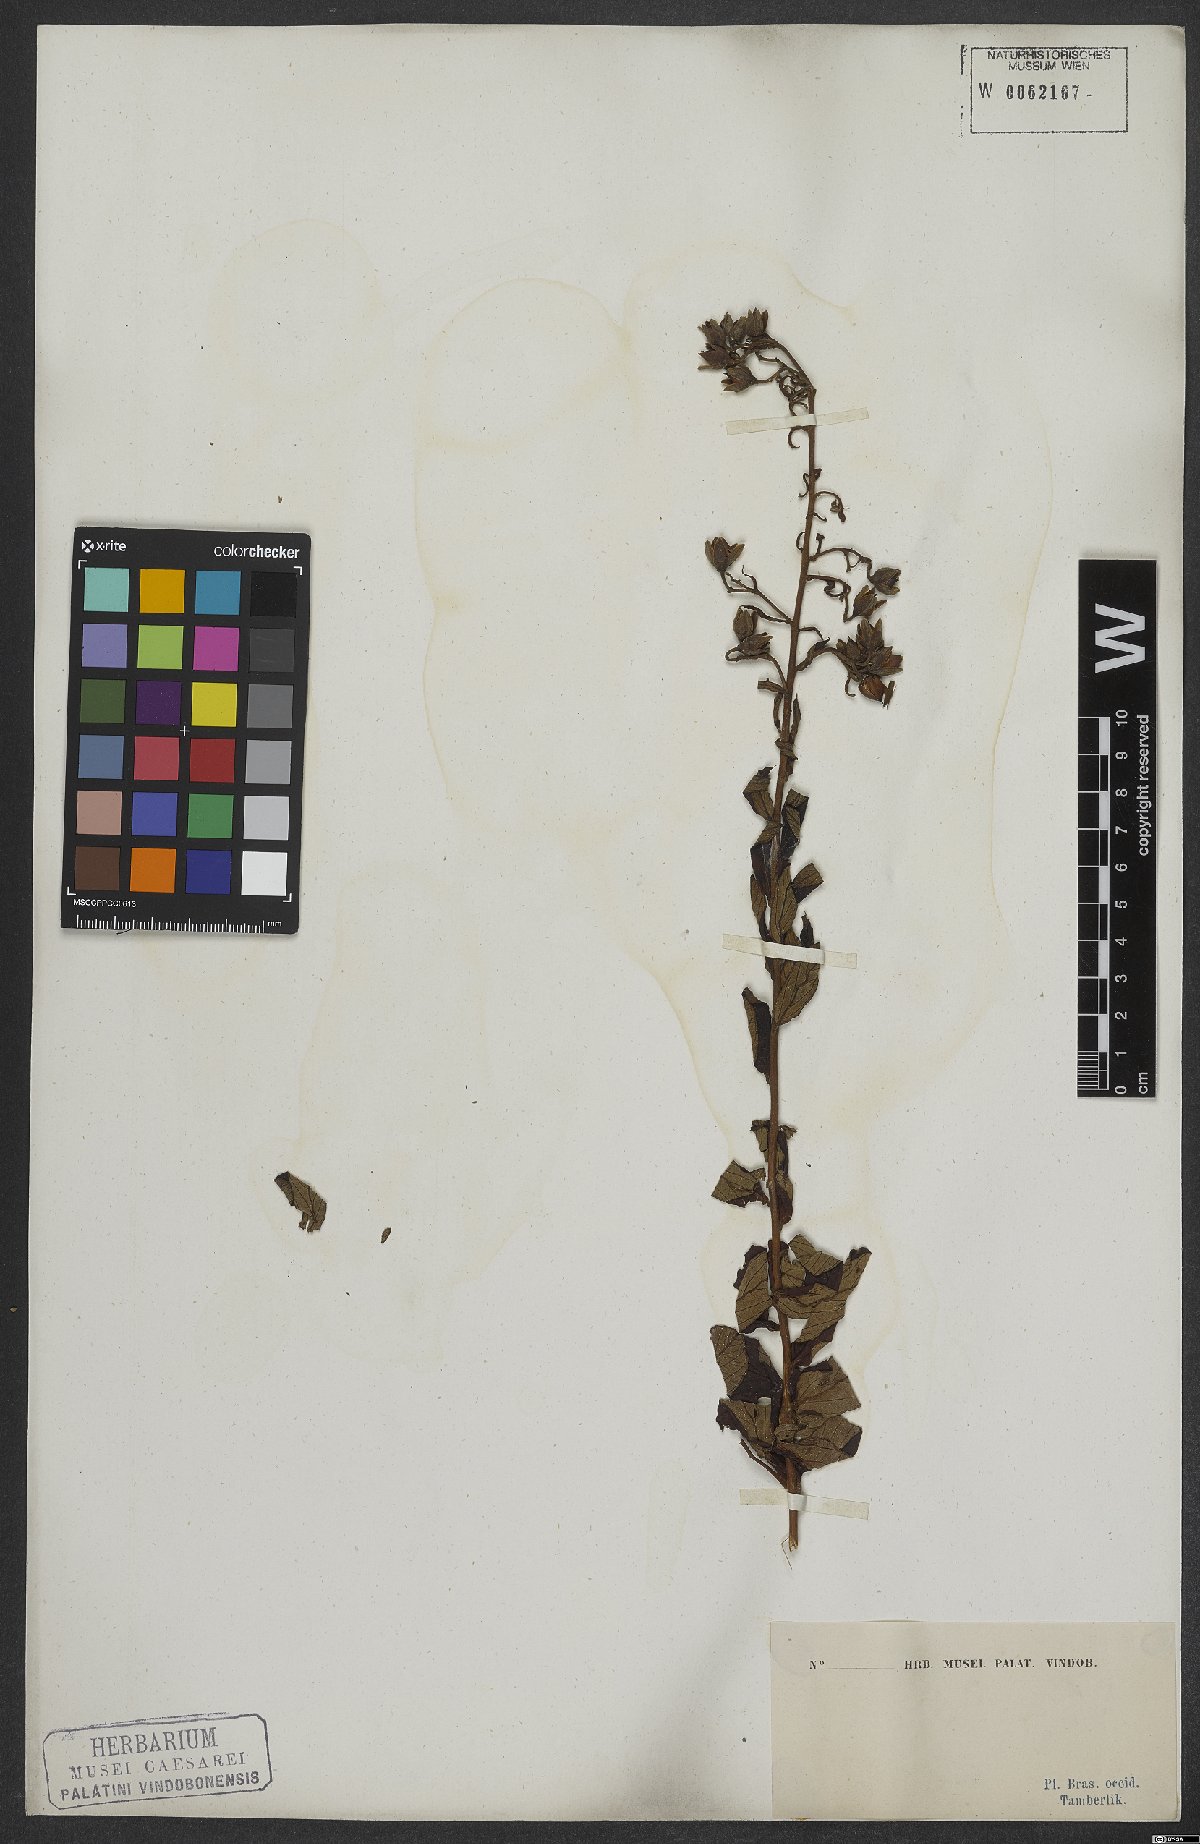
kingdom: Plantae
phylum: Tracheophyta
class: Magnoliopsida
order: Solanales
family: Convolvulaceae
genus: Ipomoea
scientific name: Ipomoea haenkeana
